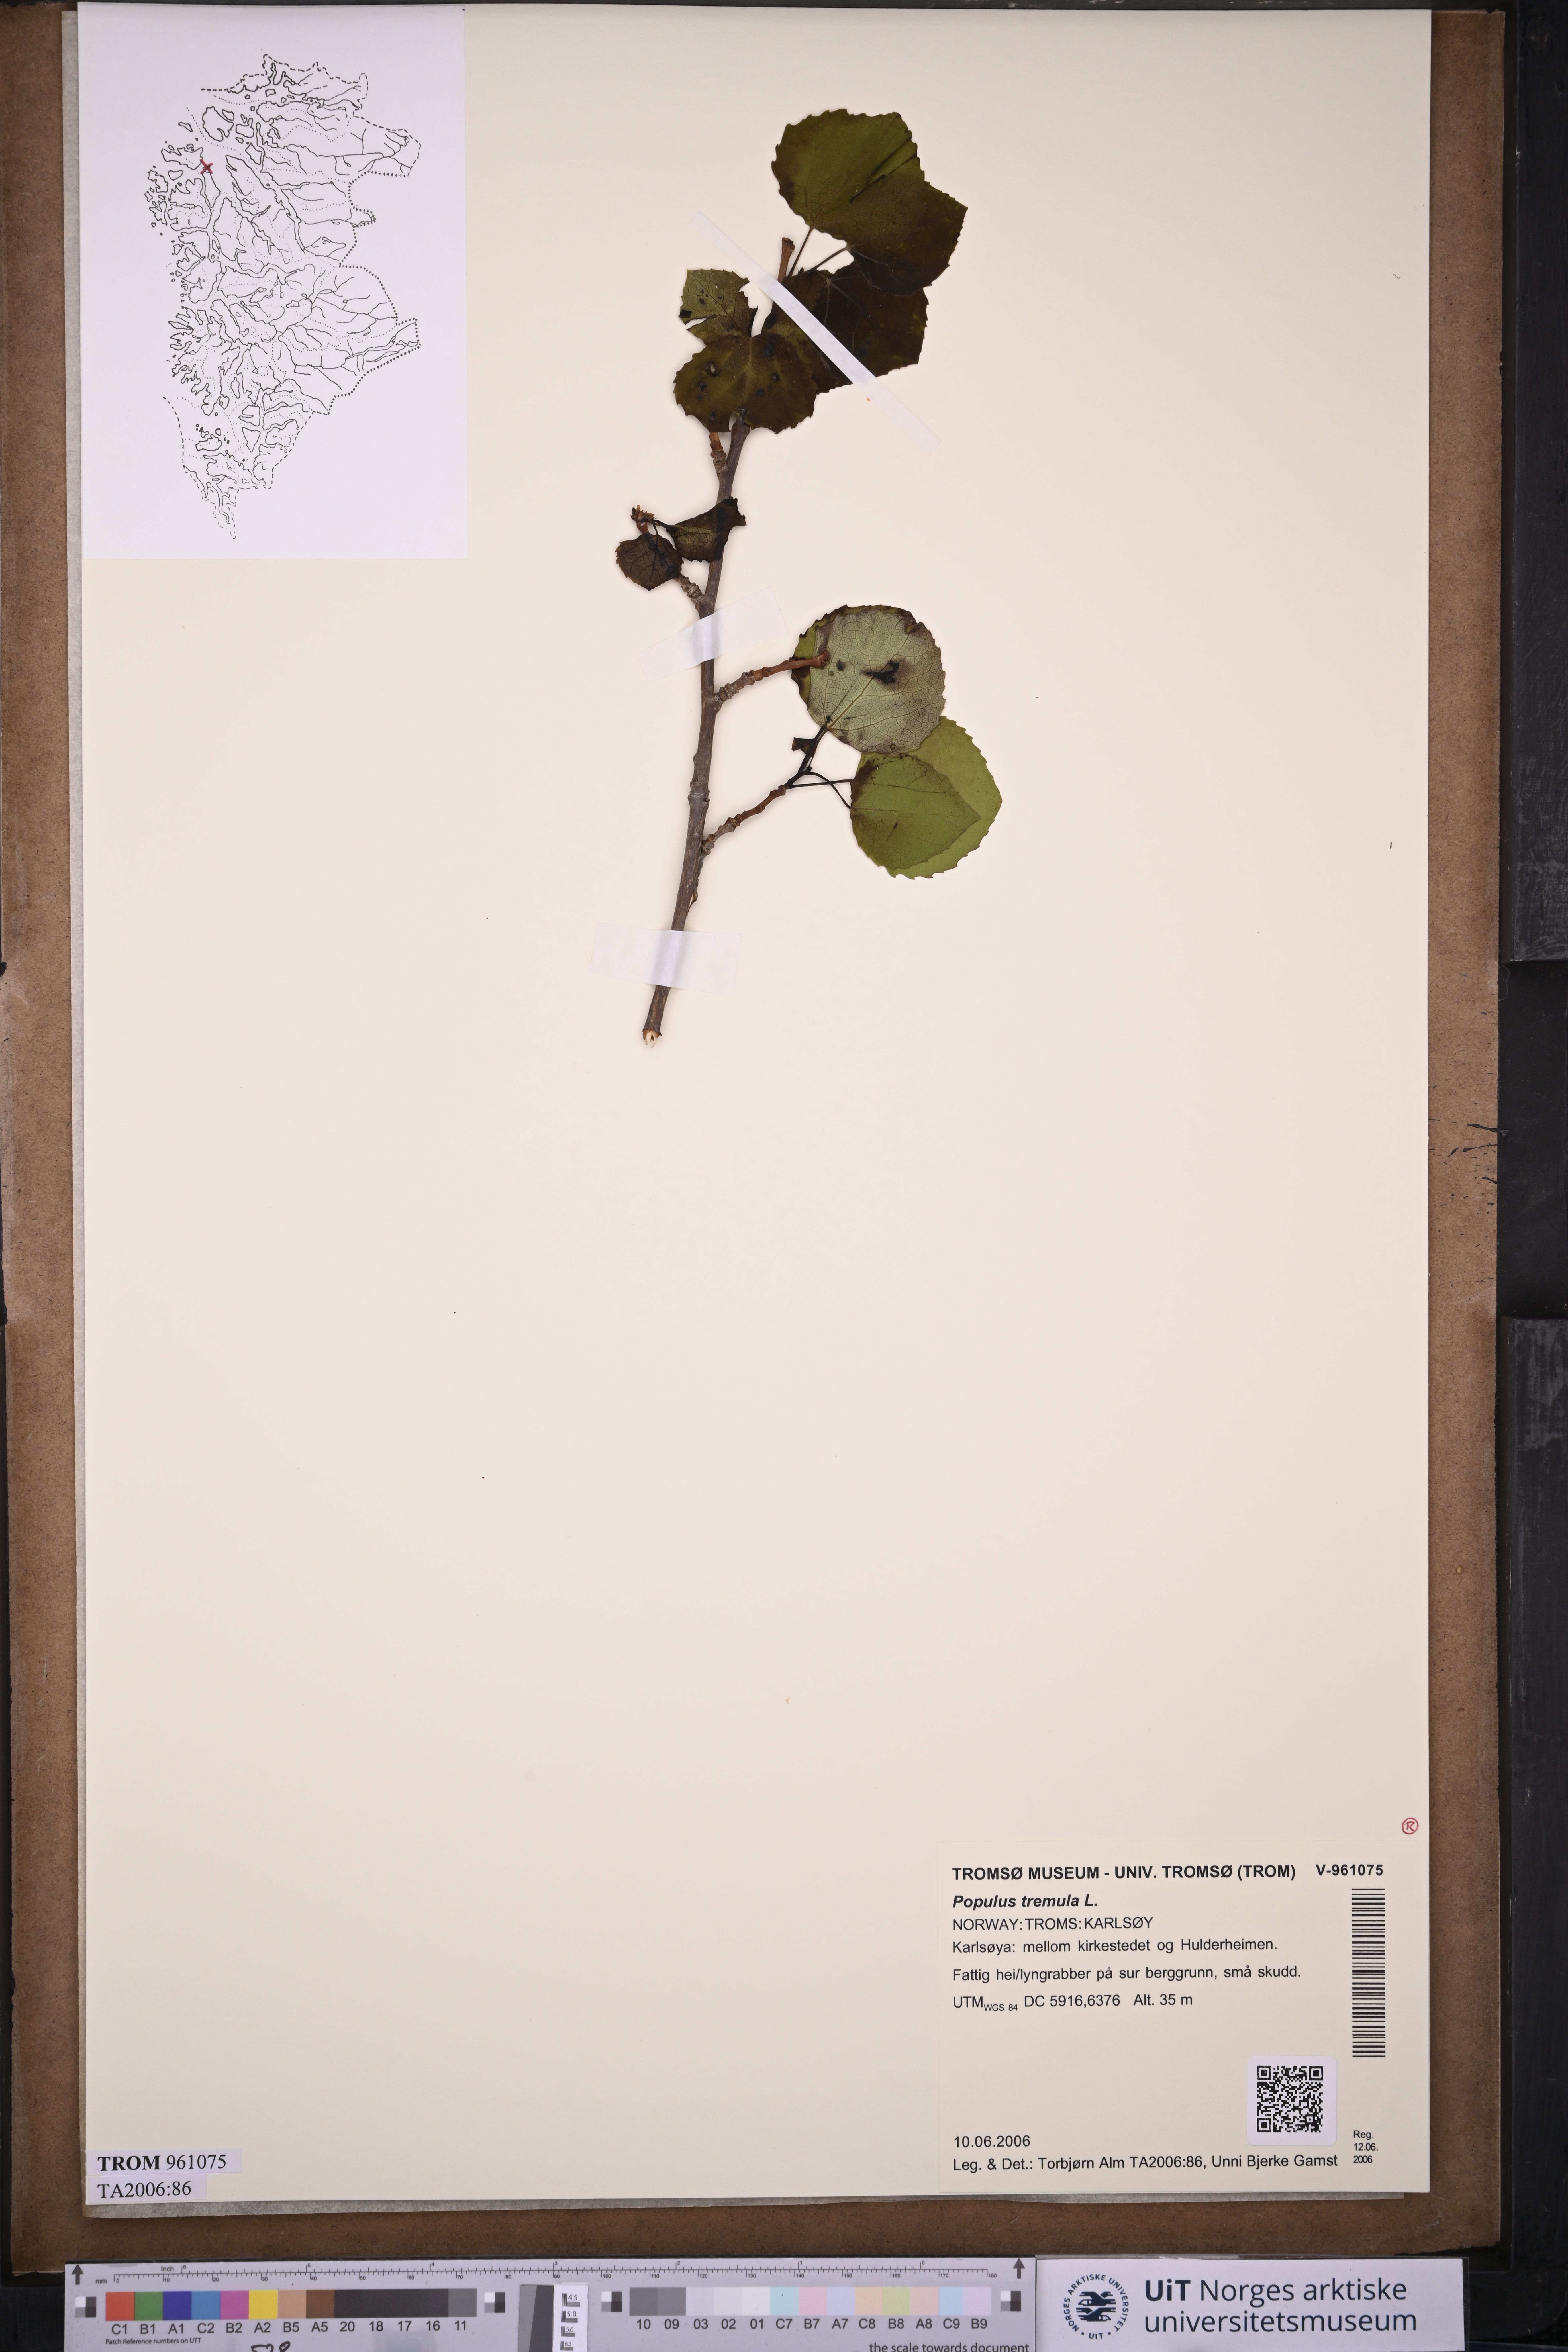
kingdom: Plantae
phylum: Tracheophyta
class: Magnoliopsida
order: Malpighiales
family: Salicaceae
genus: Populus
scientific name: Populus tremula
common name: European aspen
